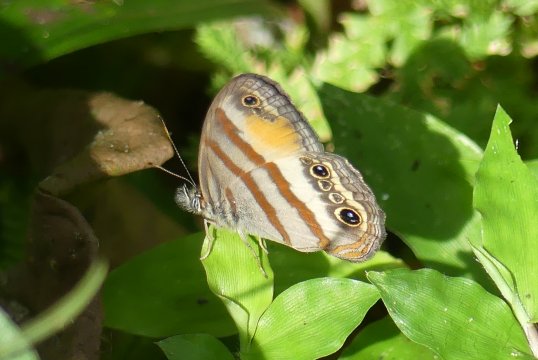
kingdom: Animalia
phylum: Arthropoda
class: Insecta
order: Lepidoptera
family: Nymphalidae
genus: Euptychia
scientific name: Euptychia Cissia pseudoconfusa
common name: Gold-stained Satyr
